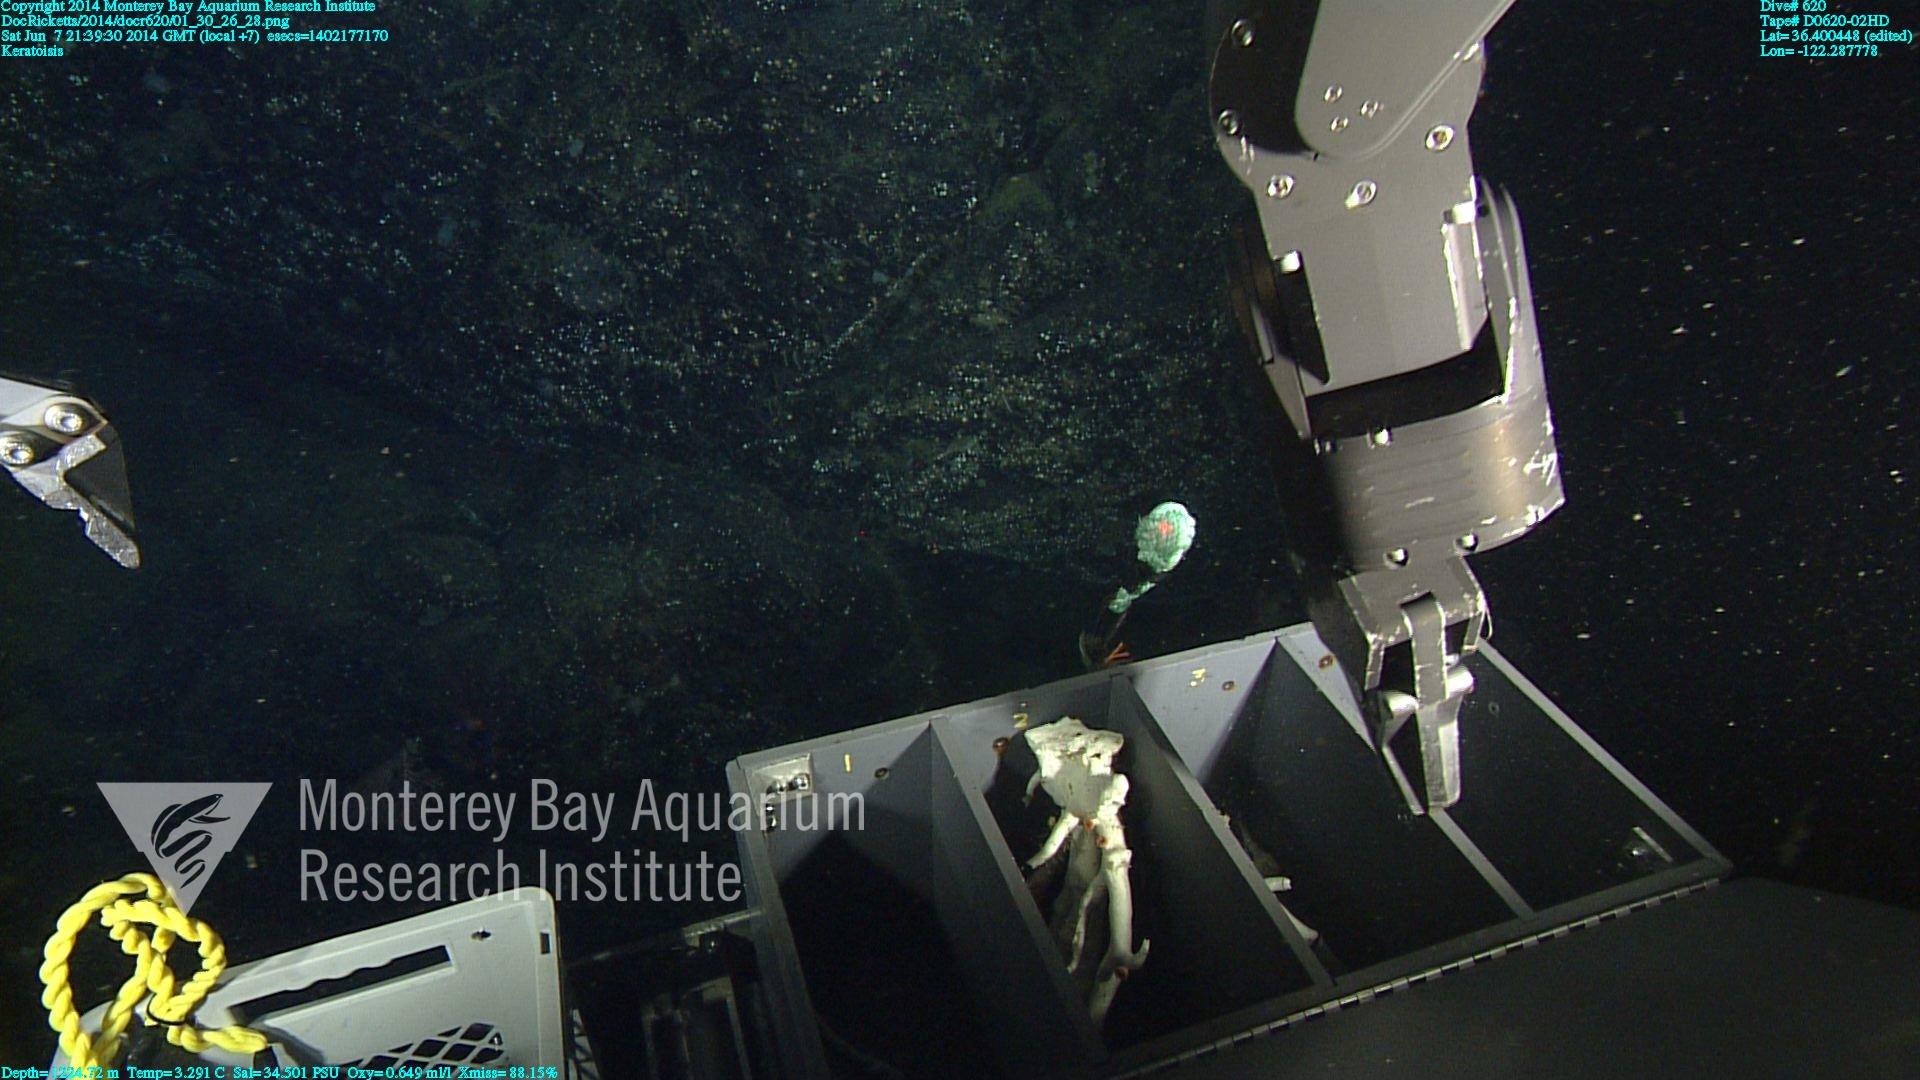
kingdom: Animalia
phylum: Cnidaria
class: Anthozoa
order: Scleralcyonacea
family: Keratoisididae
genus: Keratoisis
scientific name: Keratoisis
